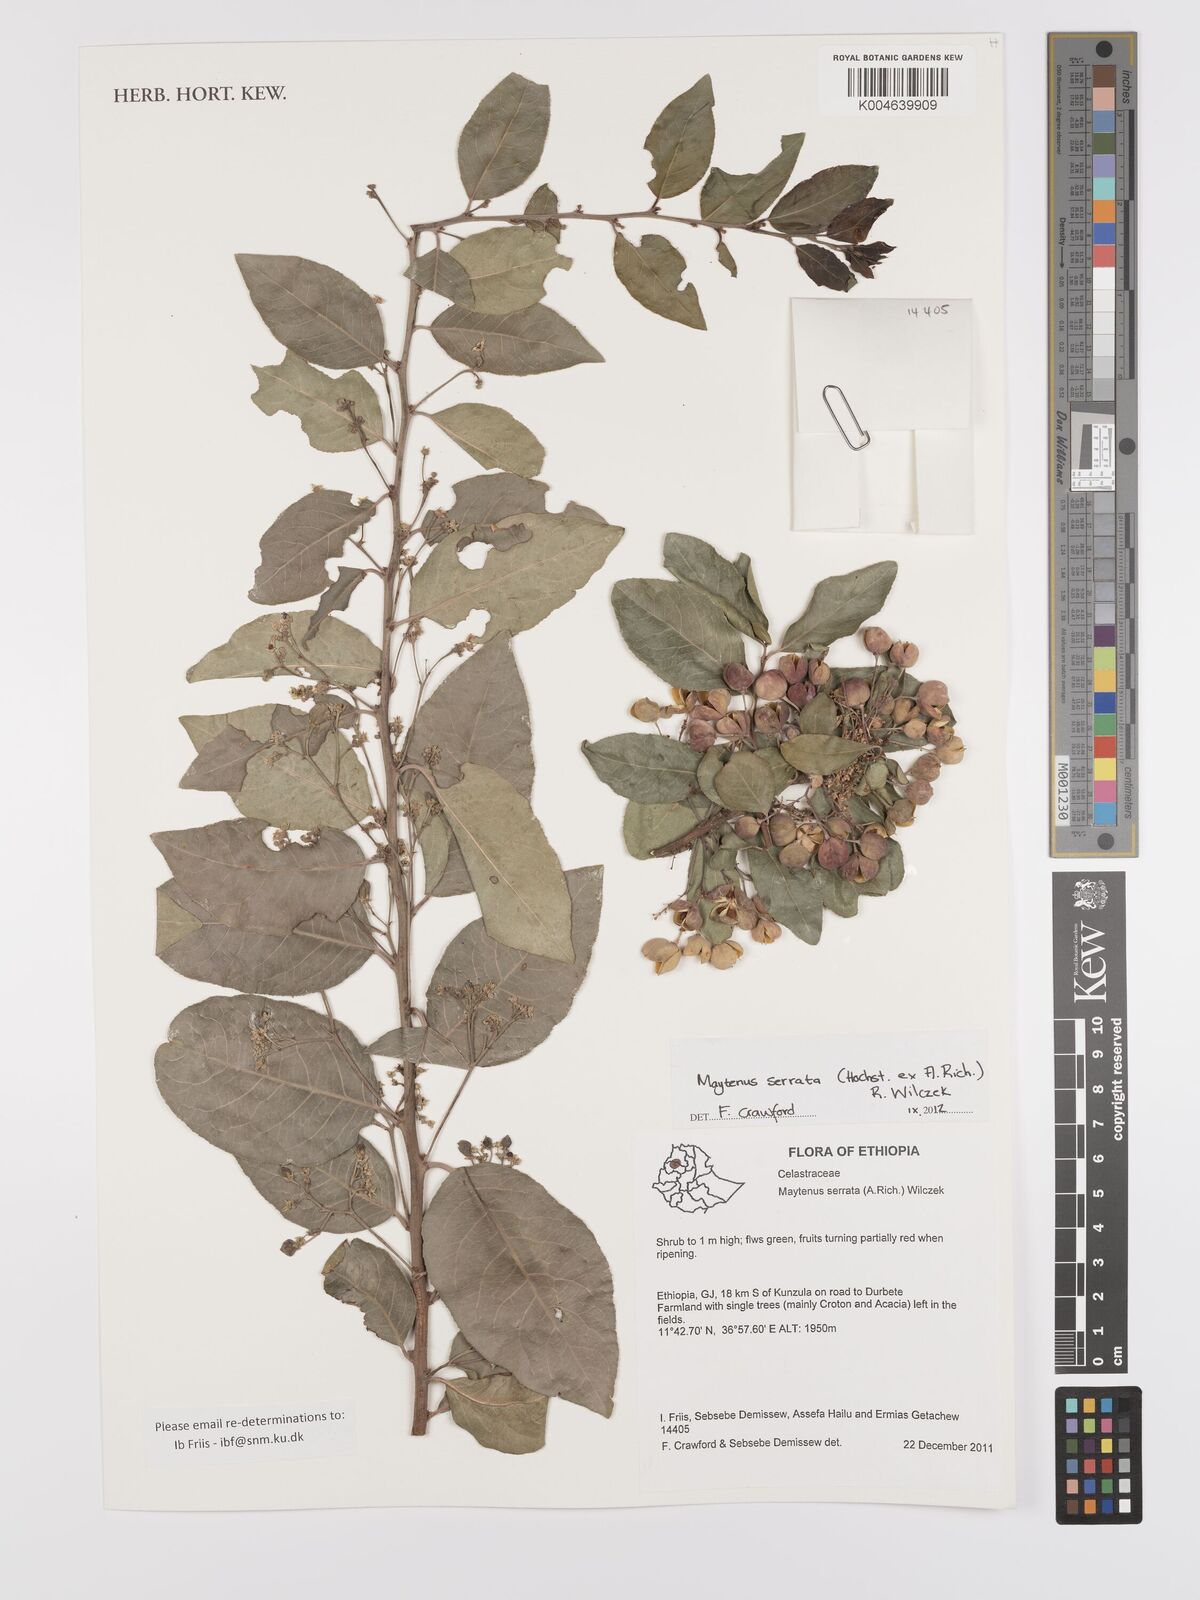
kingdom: Plantae
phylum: Tracheophyta
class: Magnoliopsida
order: Celastrales
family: Celastraceae
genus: Gymnosporia
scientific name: Gymnosporia serrata
